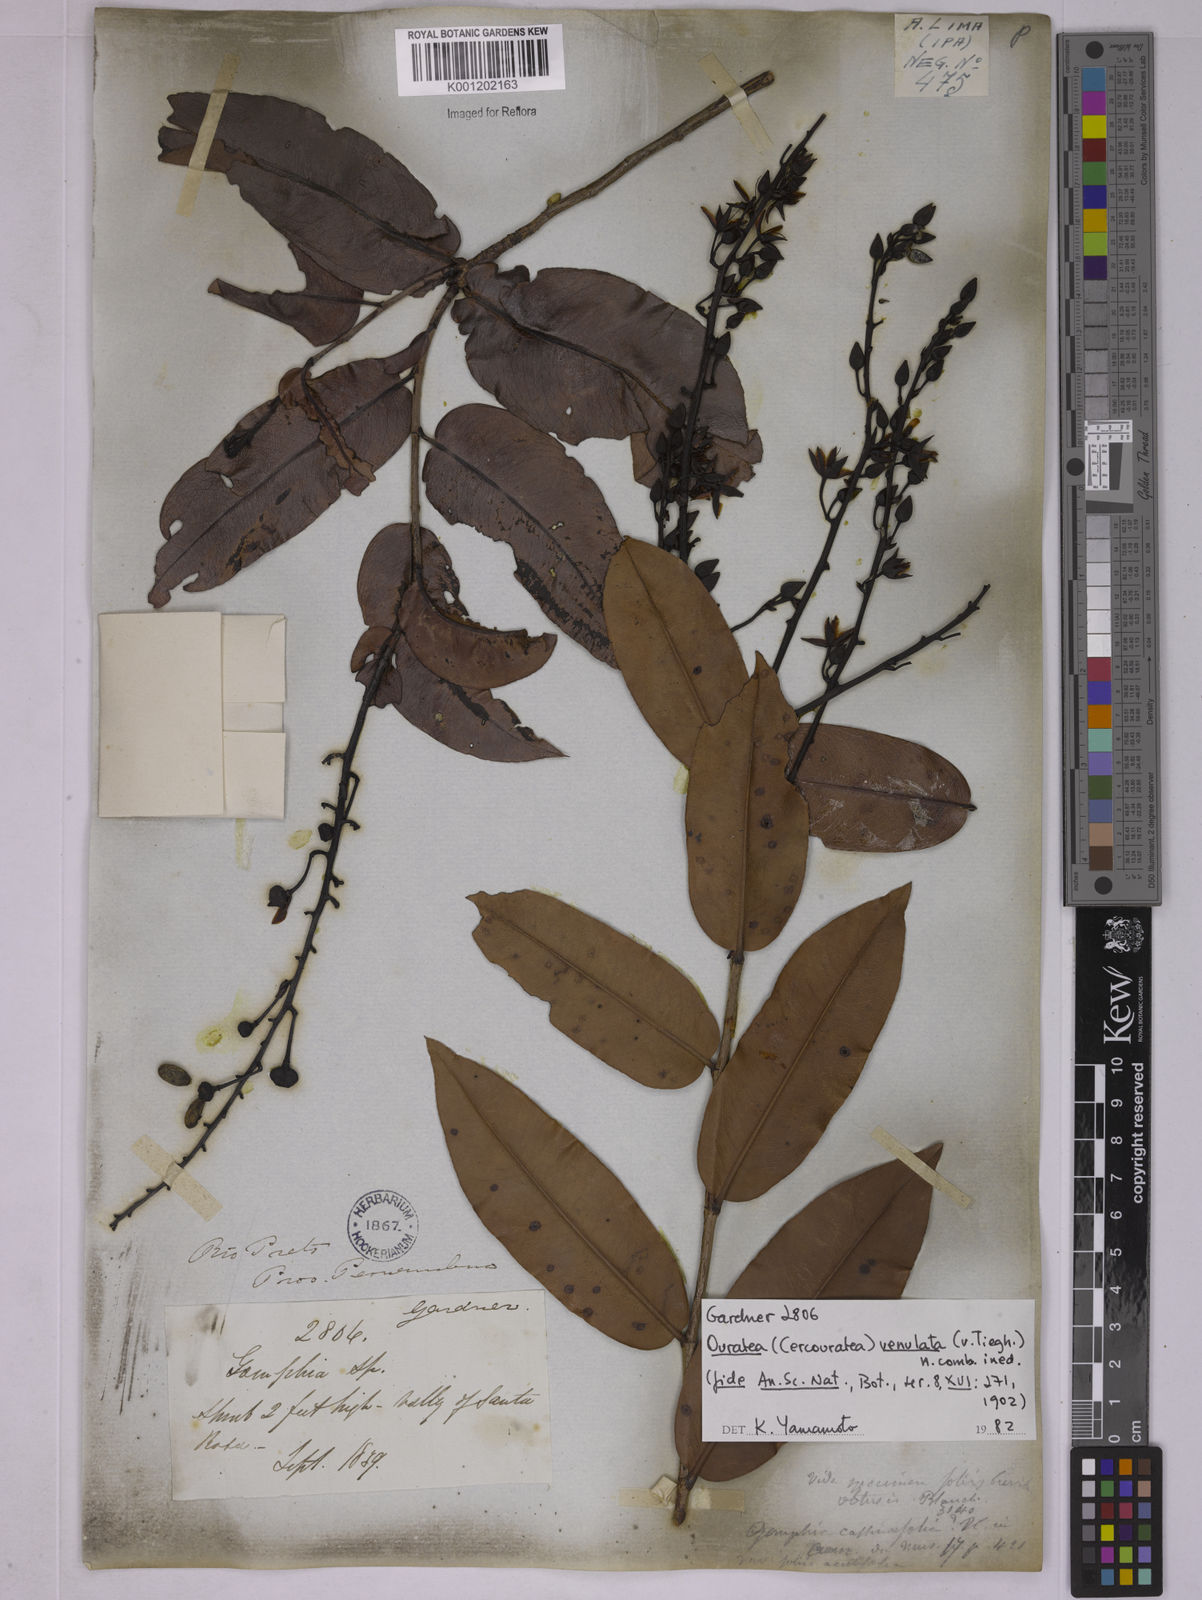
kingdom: Plantae
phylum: Tracheophyta
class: Magnoliopsida
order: Malpighiales
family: Ochnaceae
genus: Ouratea
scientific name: Ouratea venulata
